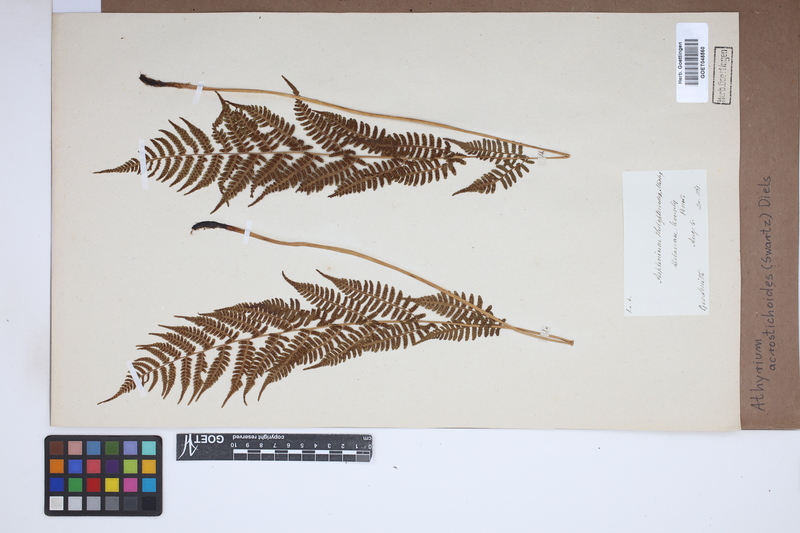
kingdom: Plantae
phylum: Tracheophyta
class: Polypodiopsida
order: Polypodiales
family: Athyriaceae
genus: Deparia
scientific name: Deparia acrostichoides
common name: Silver false spleenwort
